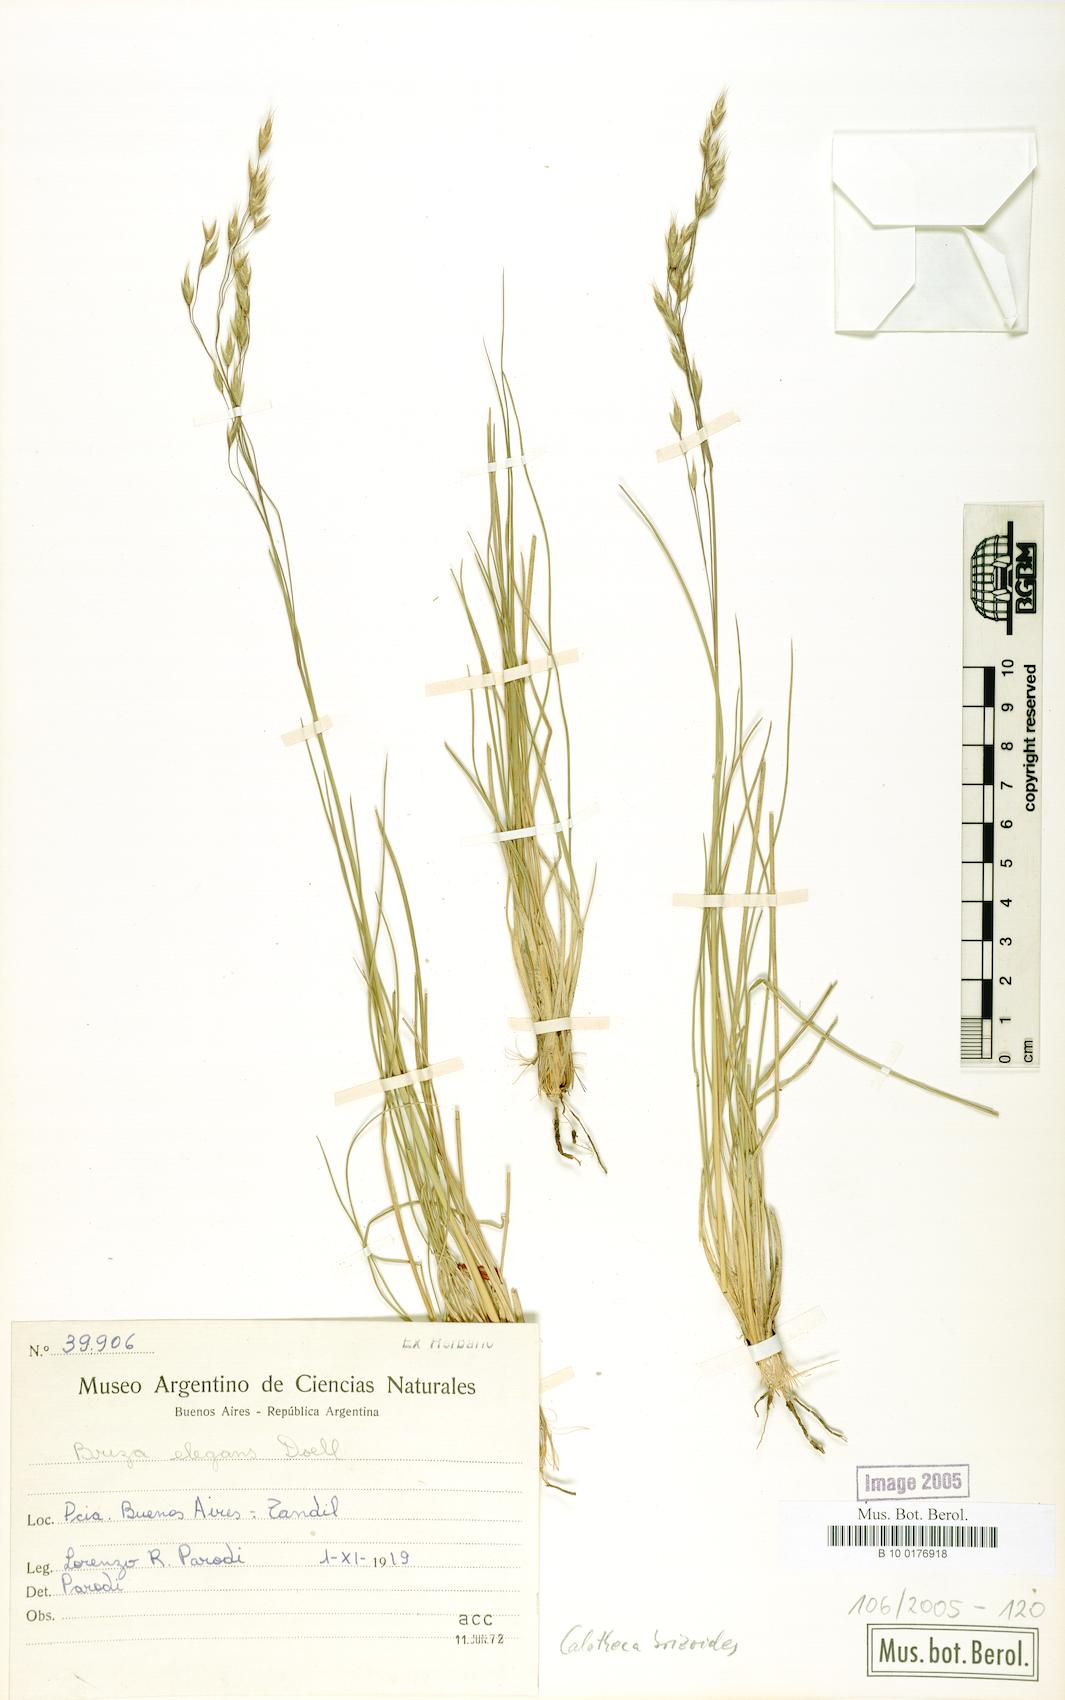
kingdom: Plantae
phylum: Tracheophyta
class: Liliopsida
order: Poales
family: Poaceae
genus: Calotheca
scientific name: Calotheca brizoides
